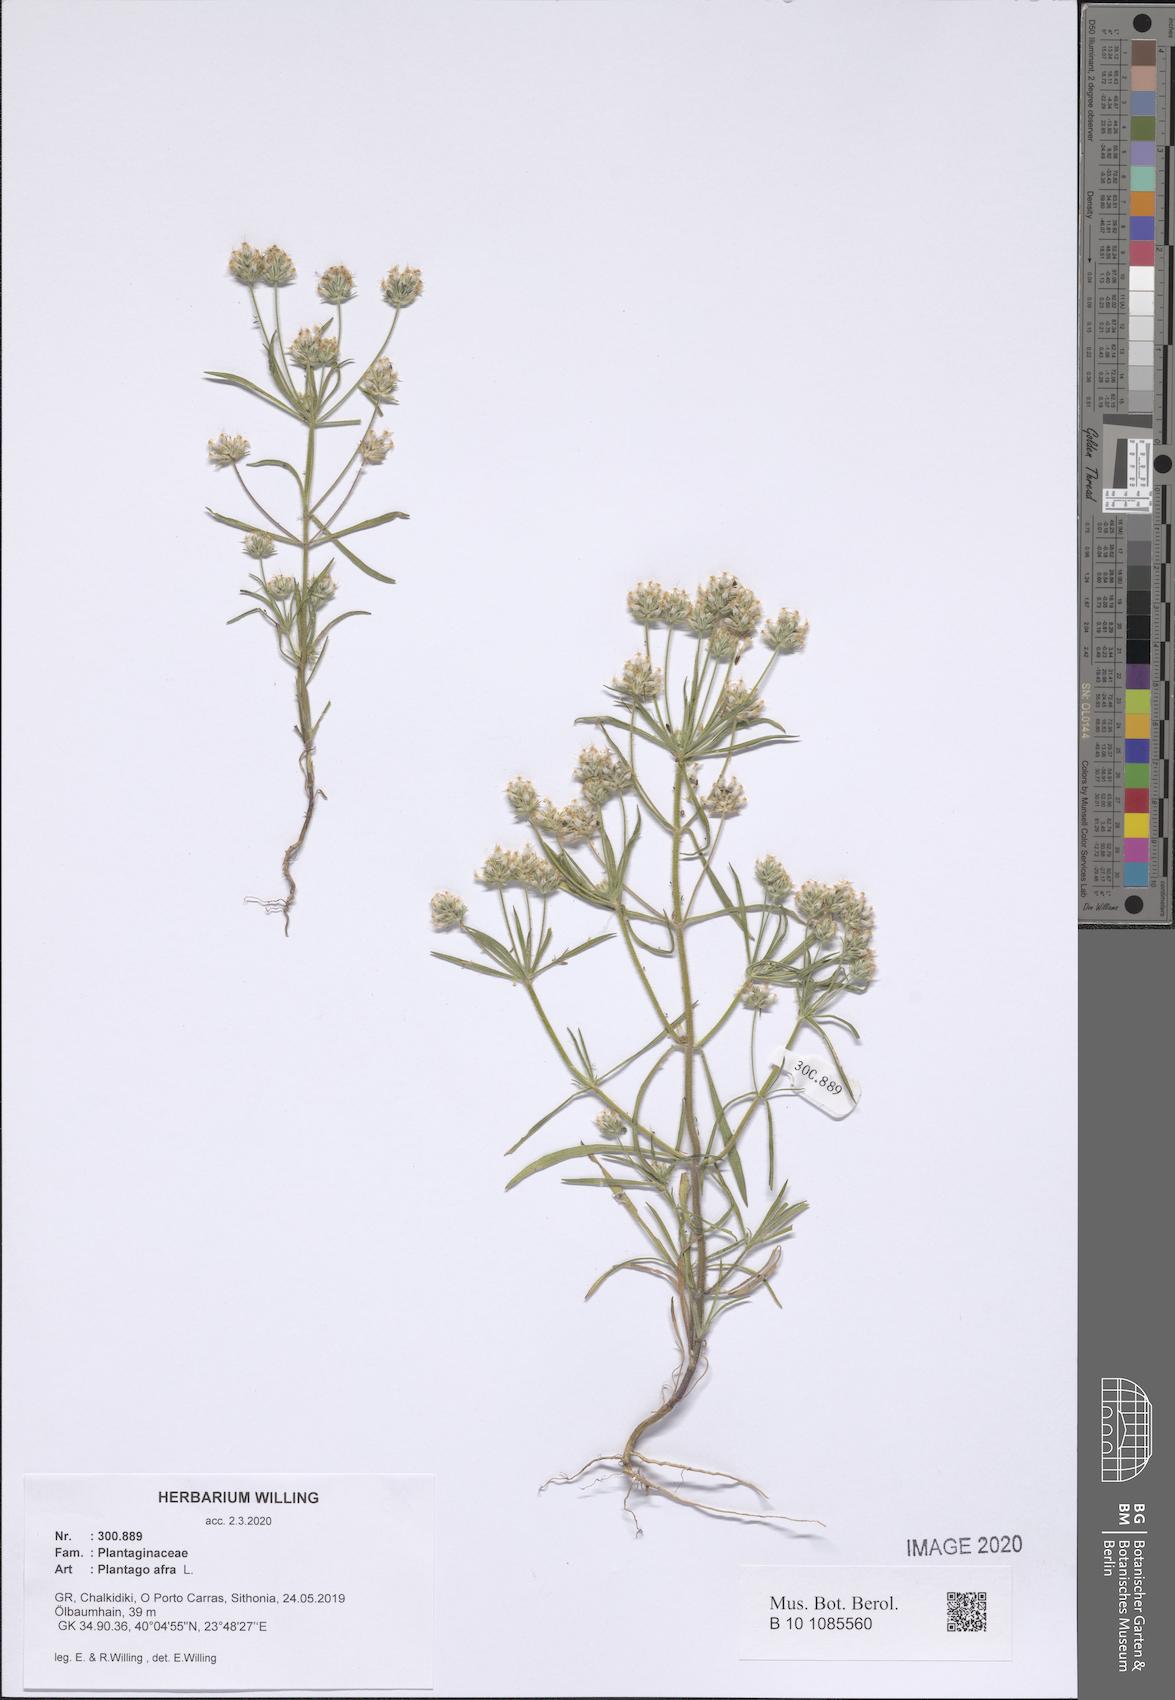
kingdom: Plantae
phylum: Tracheophyta
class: Magnoliopsida
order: Lamiales
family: Plantaginaceae
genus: Plantago
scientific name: Plantago afra
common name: Glandular plantain
